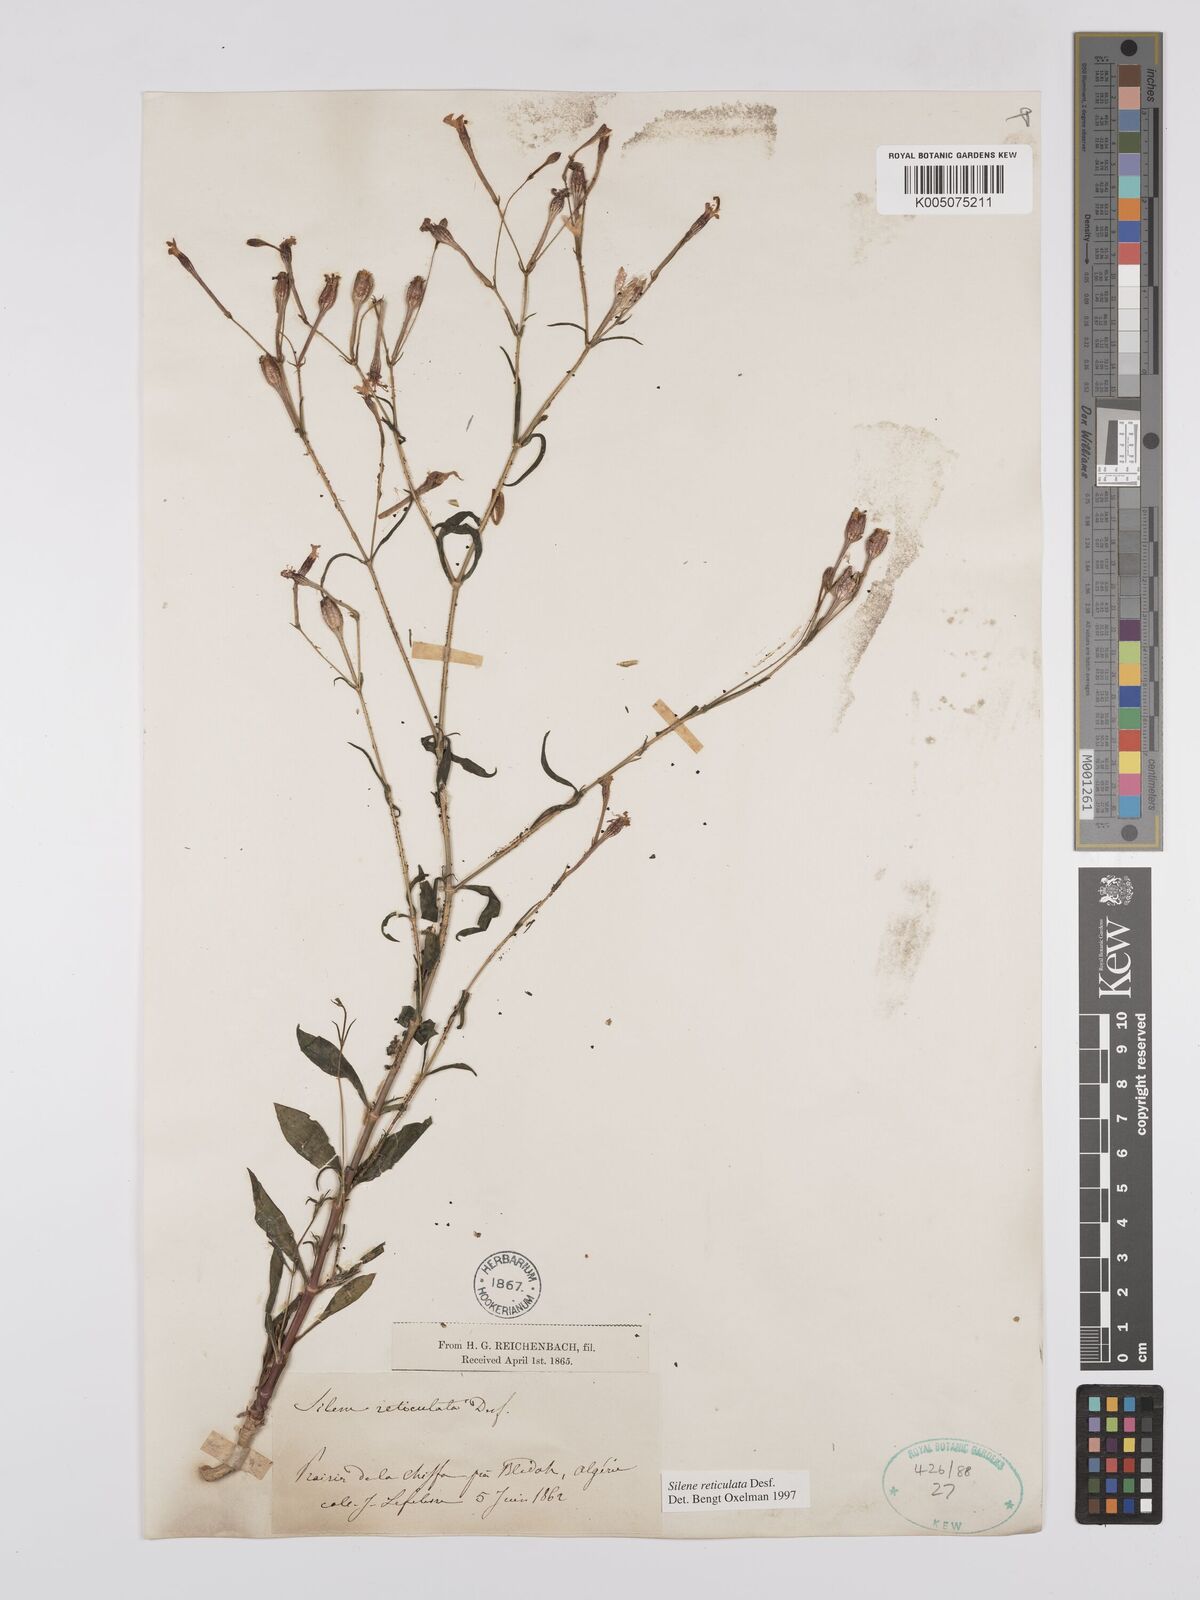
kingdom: Plantae
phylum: Tracheophyta
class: Magnoliopsida
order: Caryophyllales
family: Caryophyllaceae
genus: Silene
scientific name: Silene ramosissima
